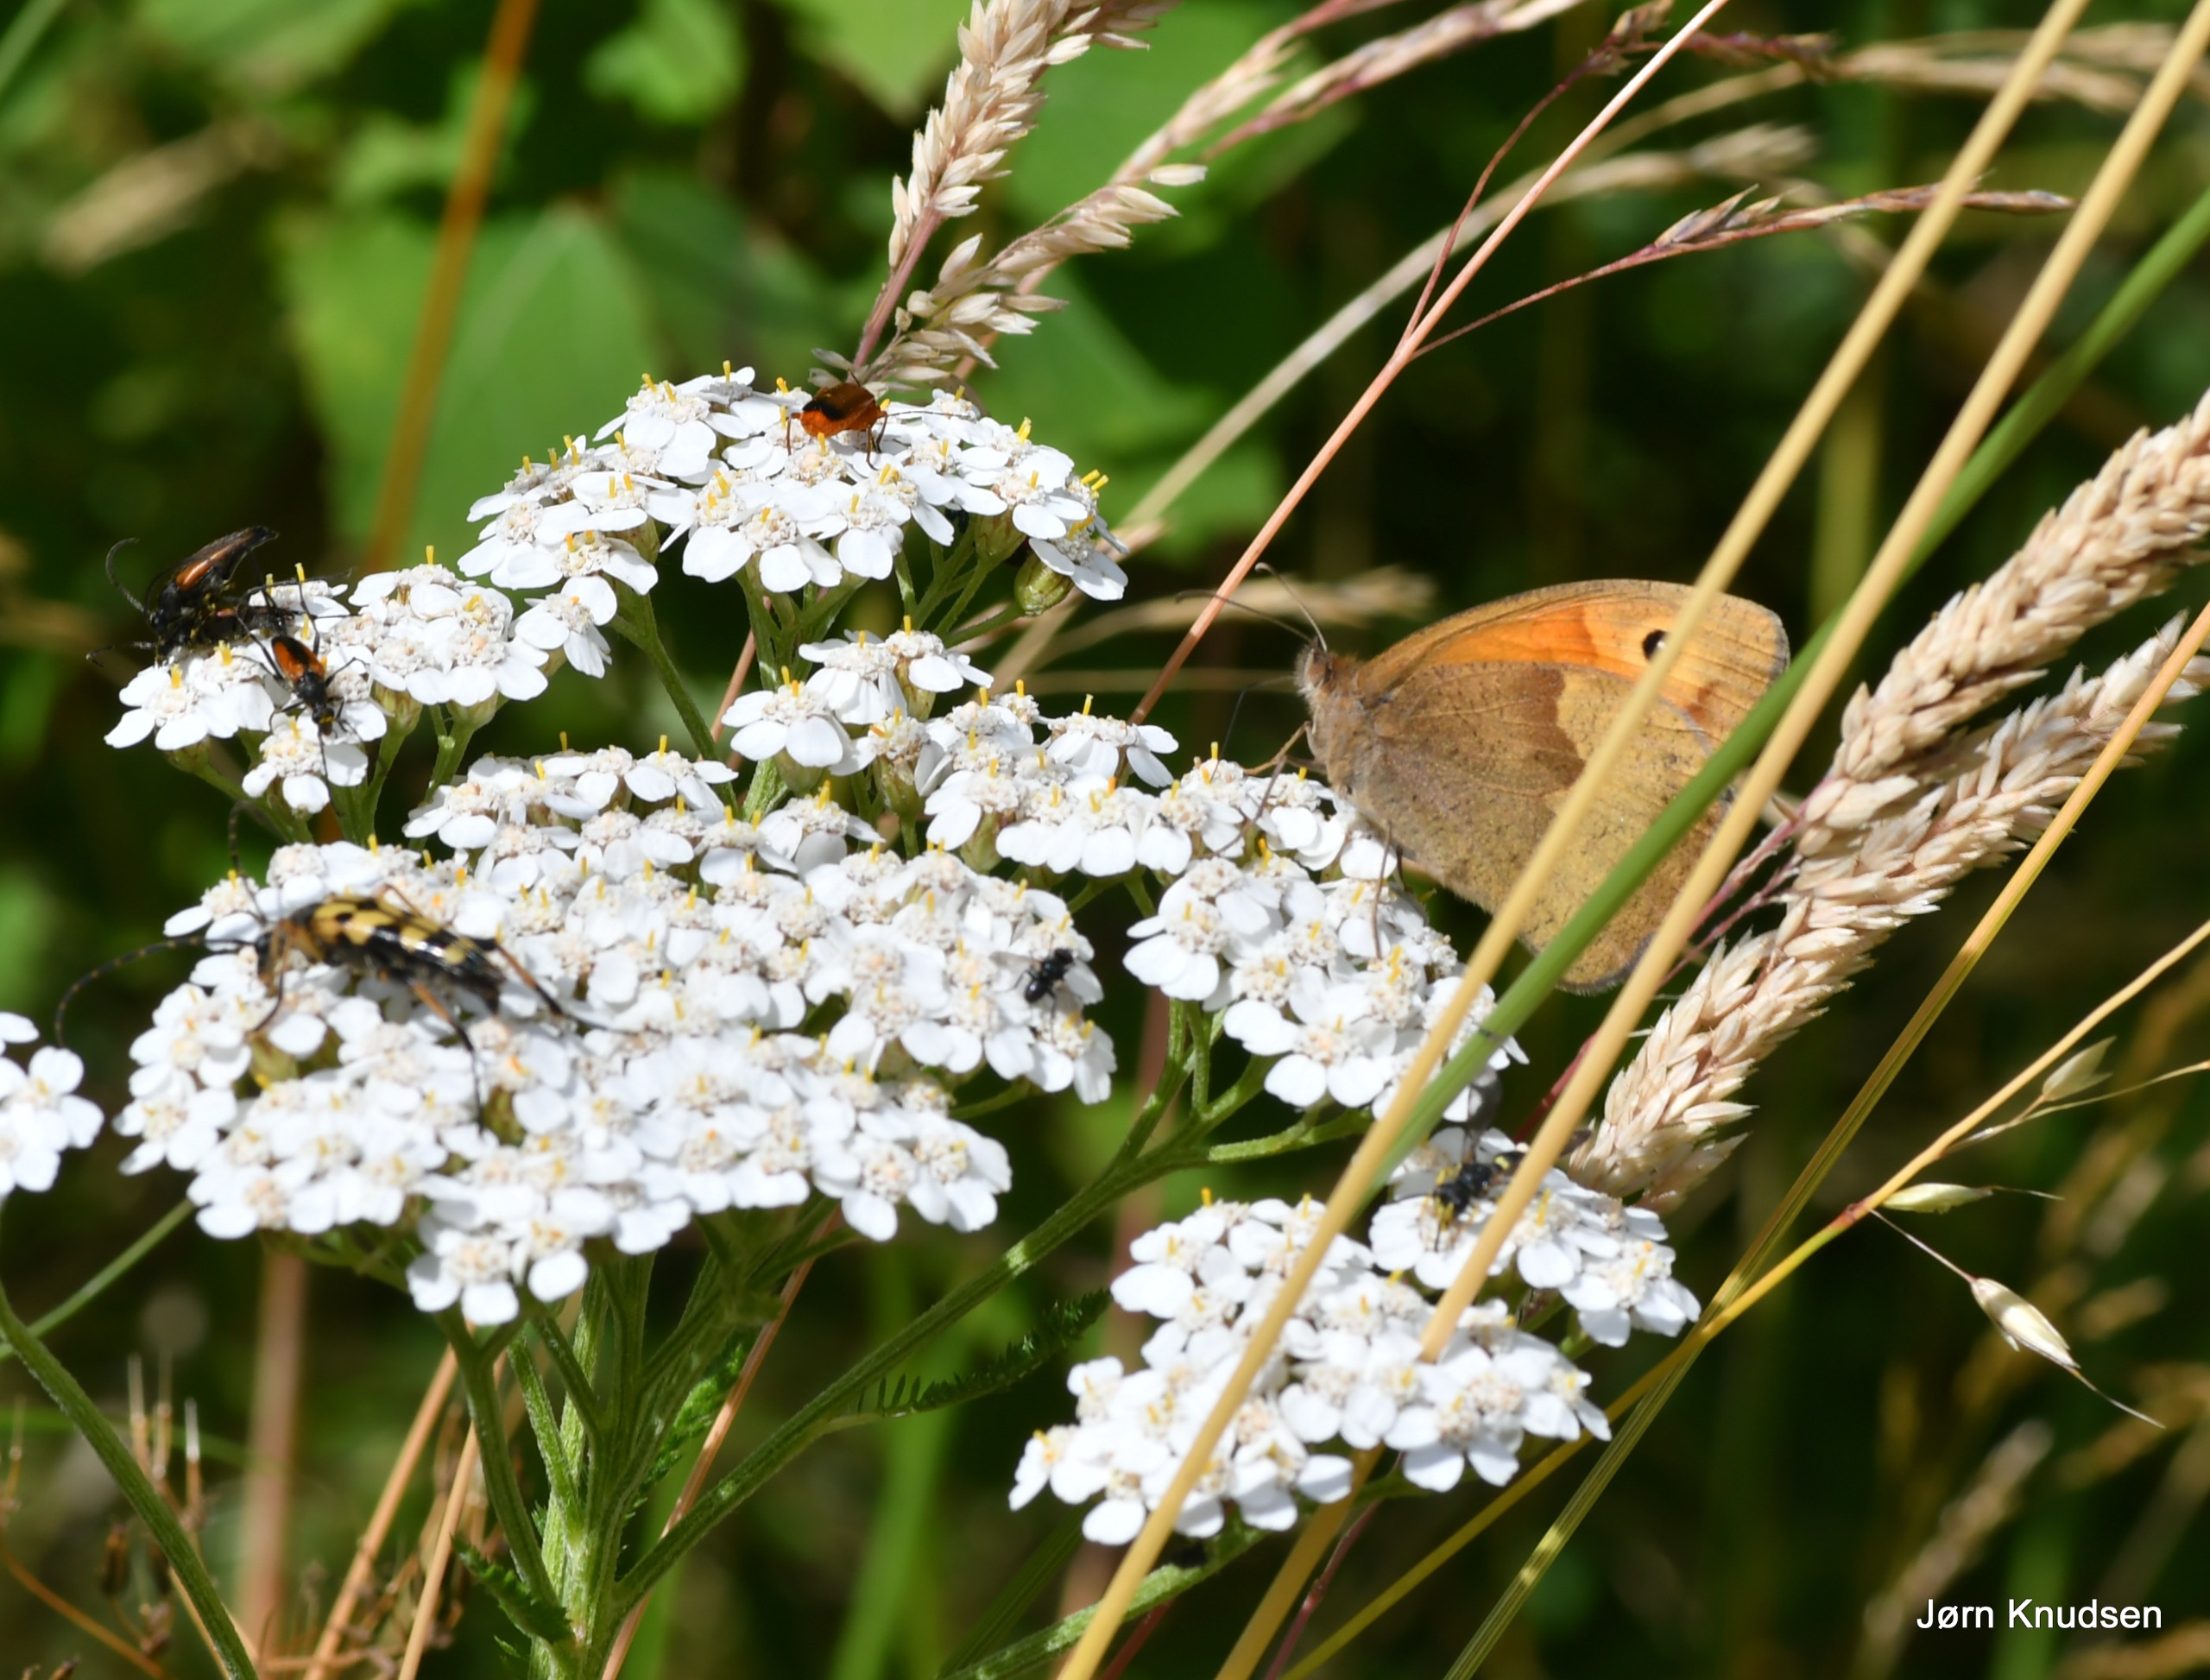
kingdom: Animalia
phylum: Arthropoda
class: Insecta
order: Lepidoptera
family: Nymphalidae
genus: Maniola
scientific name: Maniola jurtina
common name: Græsrandøje
